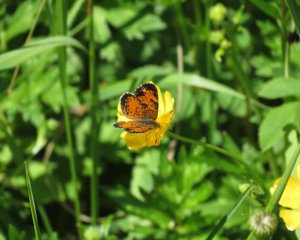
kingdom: Animalia
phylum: Arthropoda
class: Insecta
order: Lepidoptera
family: Nymphalidae
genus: Phyciodes
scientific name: Phyciodes tharos
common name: Northern Crescent
